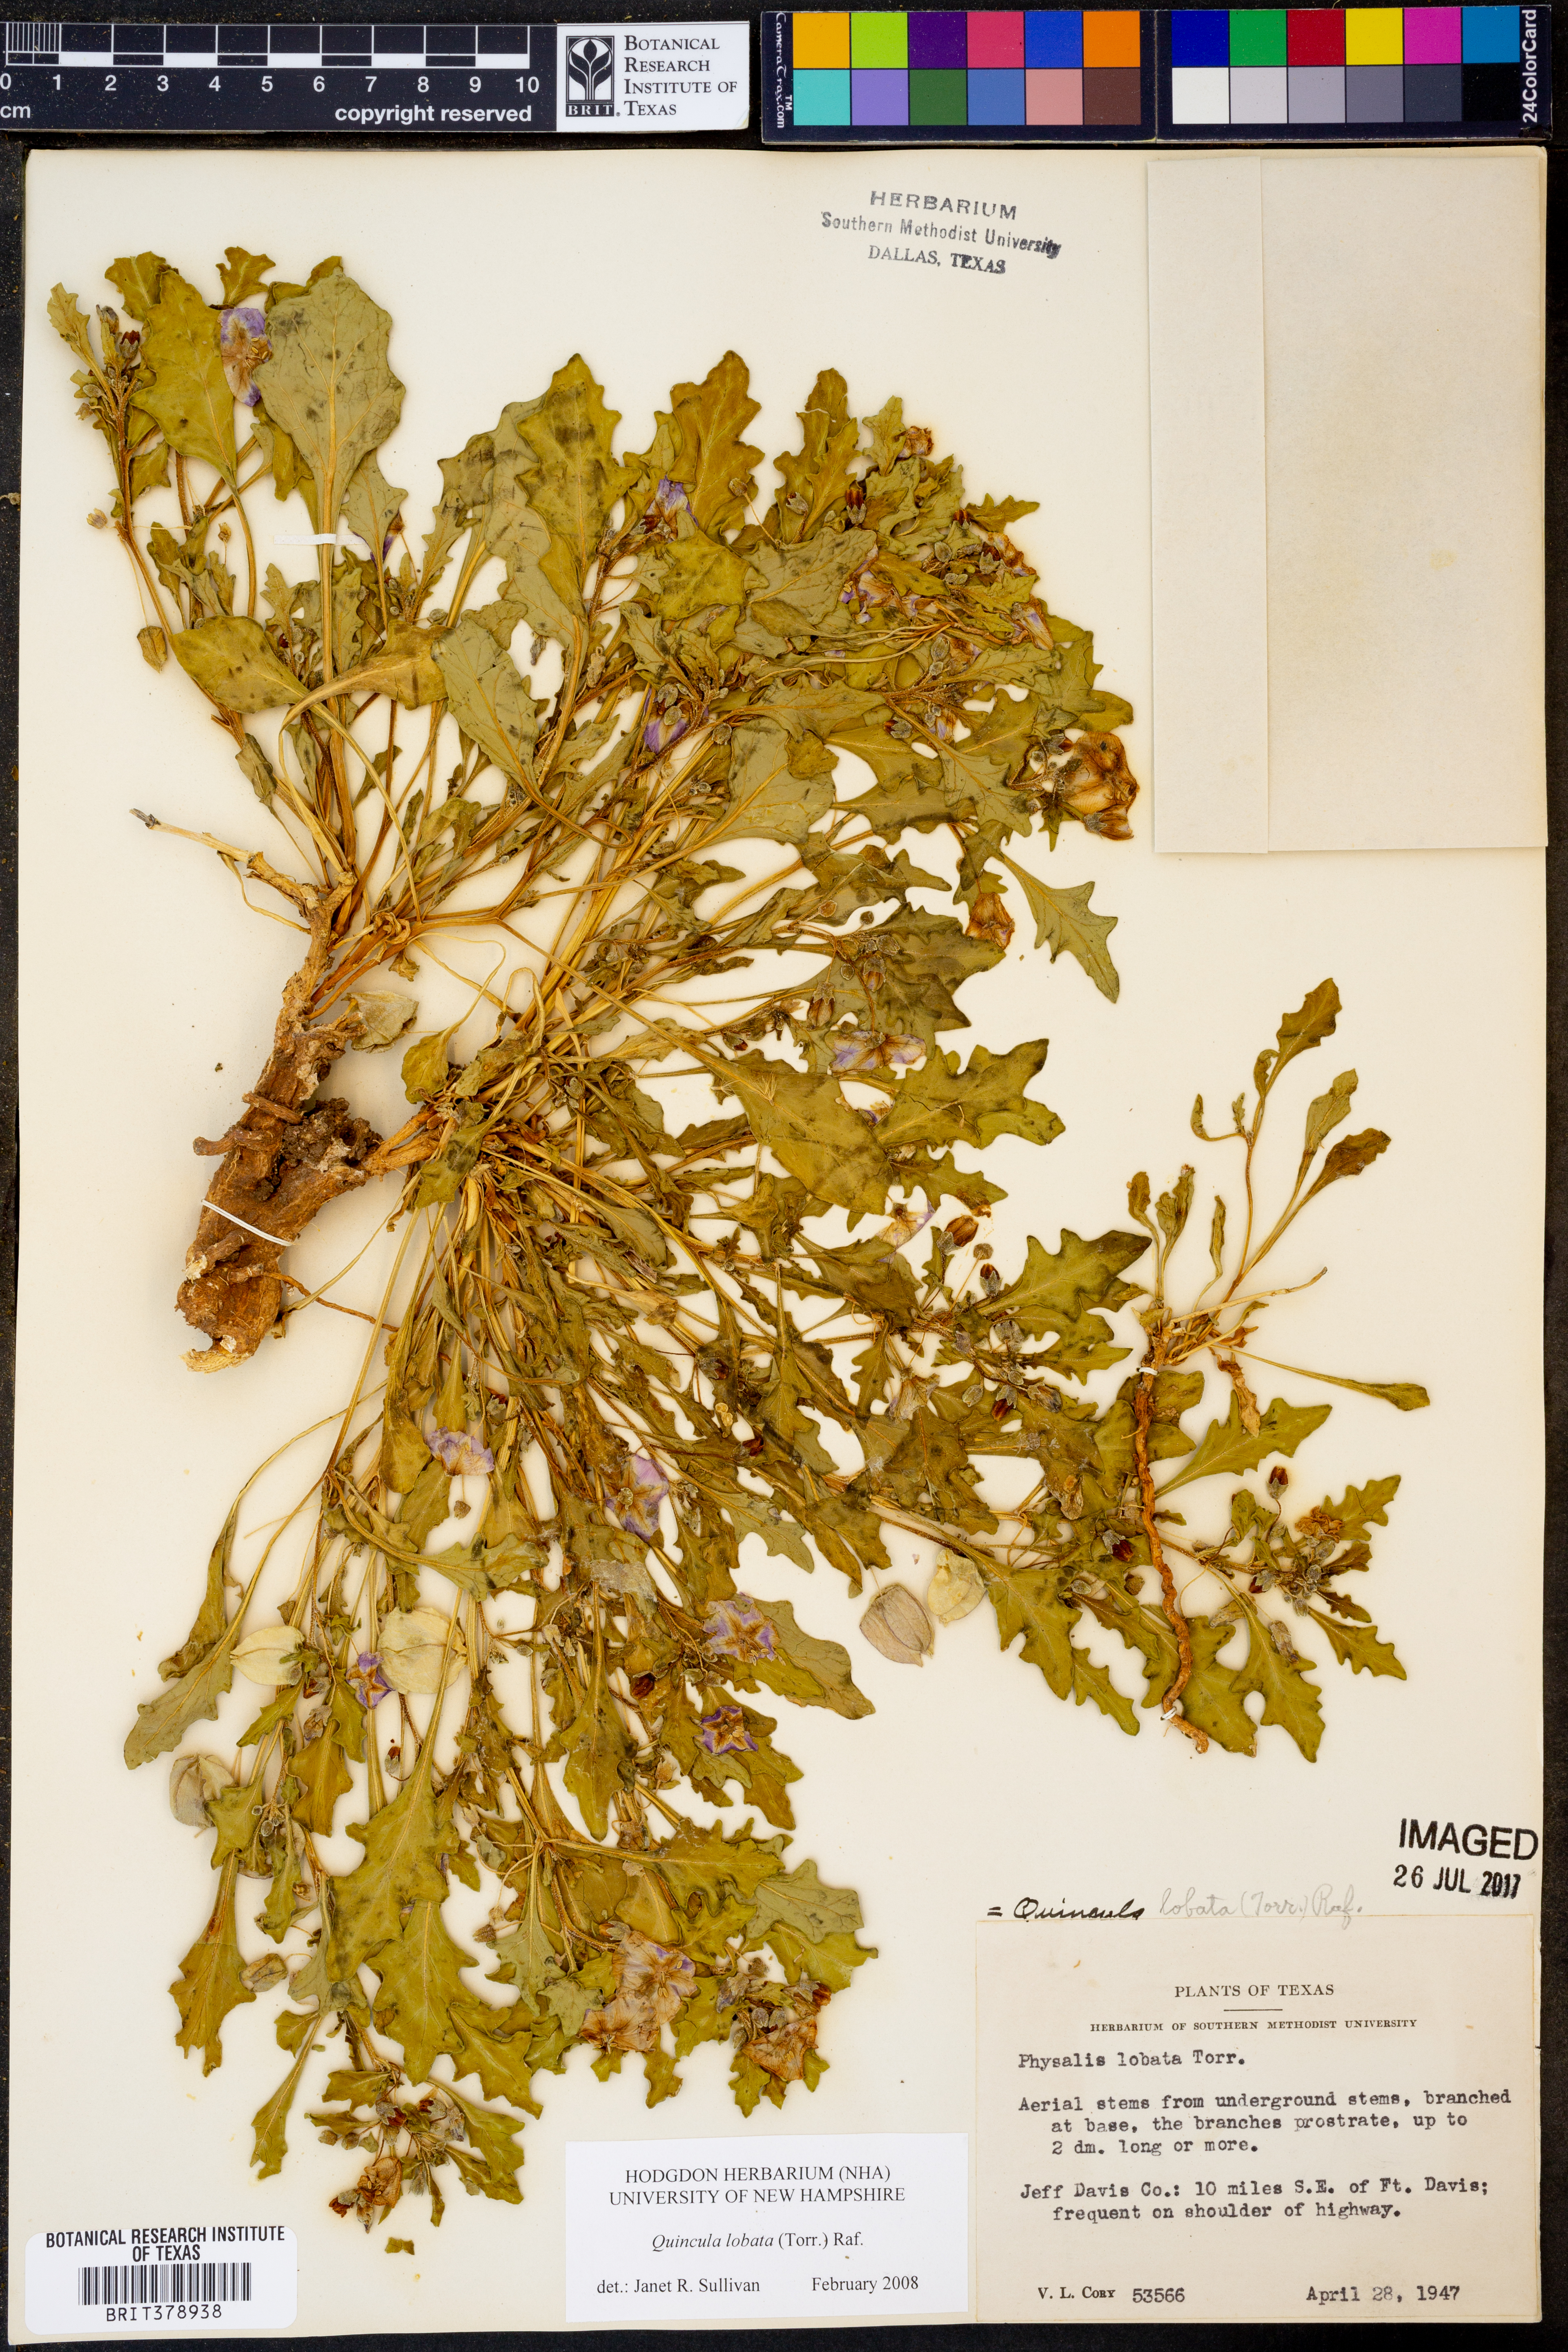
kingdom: Plantae
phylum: Tracheophyta
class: Magnoliopsida
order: Solanales
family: Solanaceae
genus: Quincula
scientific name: Quincula lobata
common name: Purple-ground-cherry
